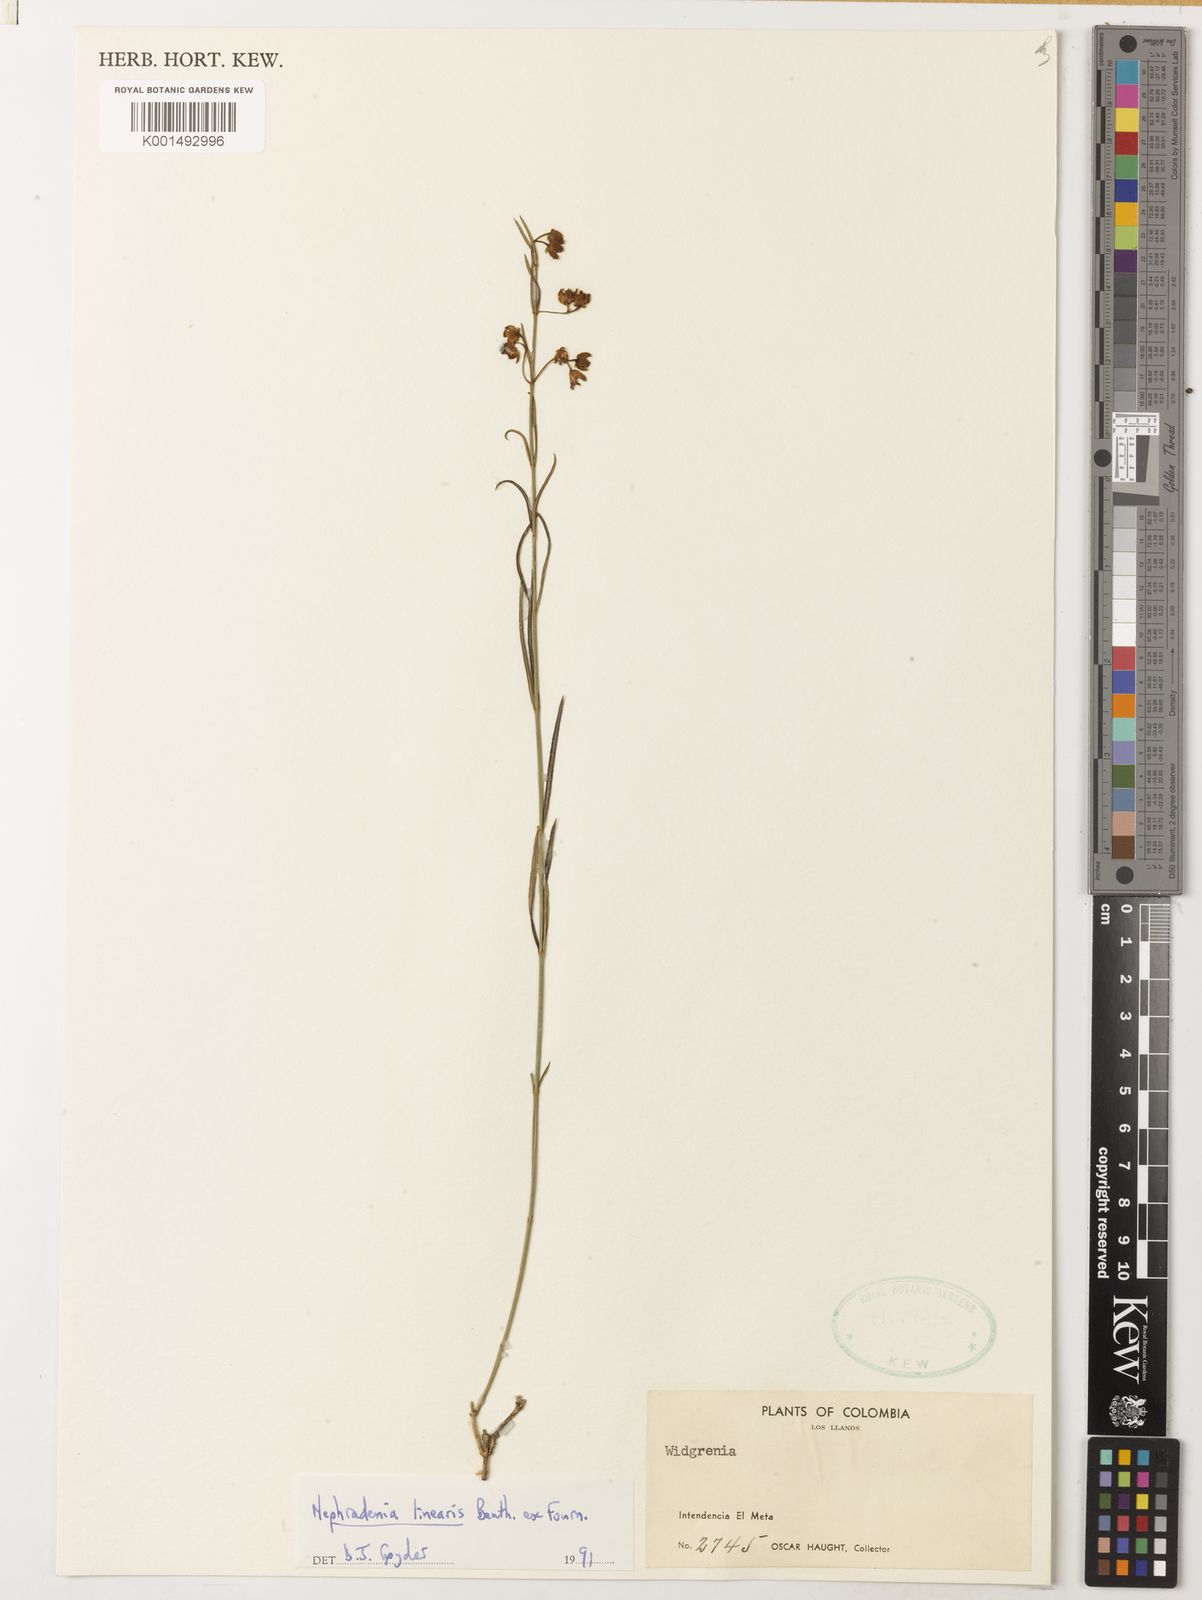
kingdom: Plantae
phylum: Tracheophyta
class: Magnoliopsida
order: Gentianales
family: Apocynaceae
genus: Blepharodon
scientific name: Blepharodon lineare
